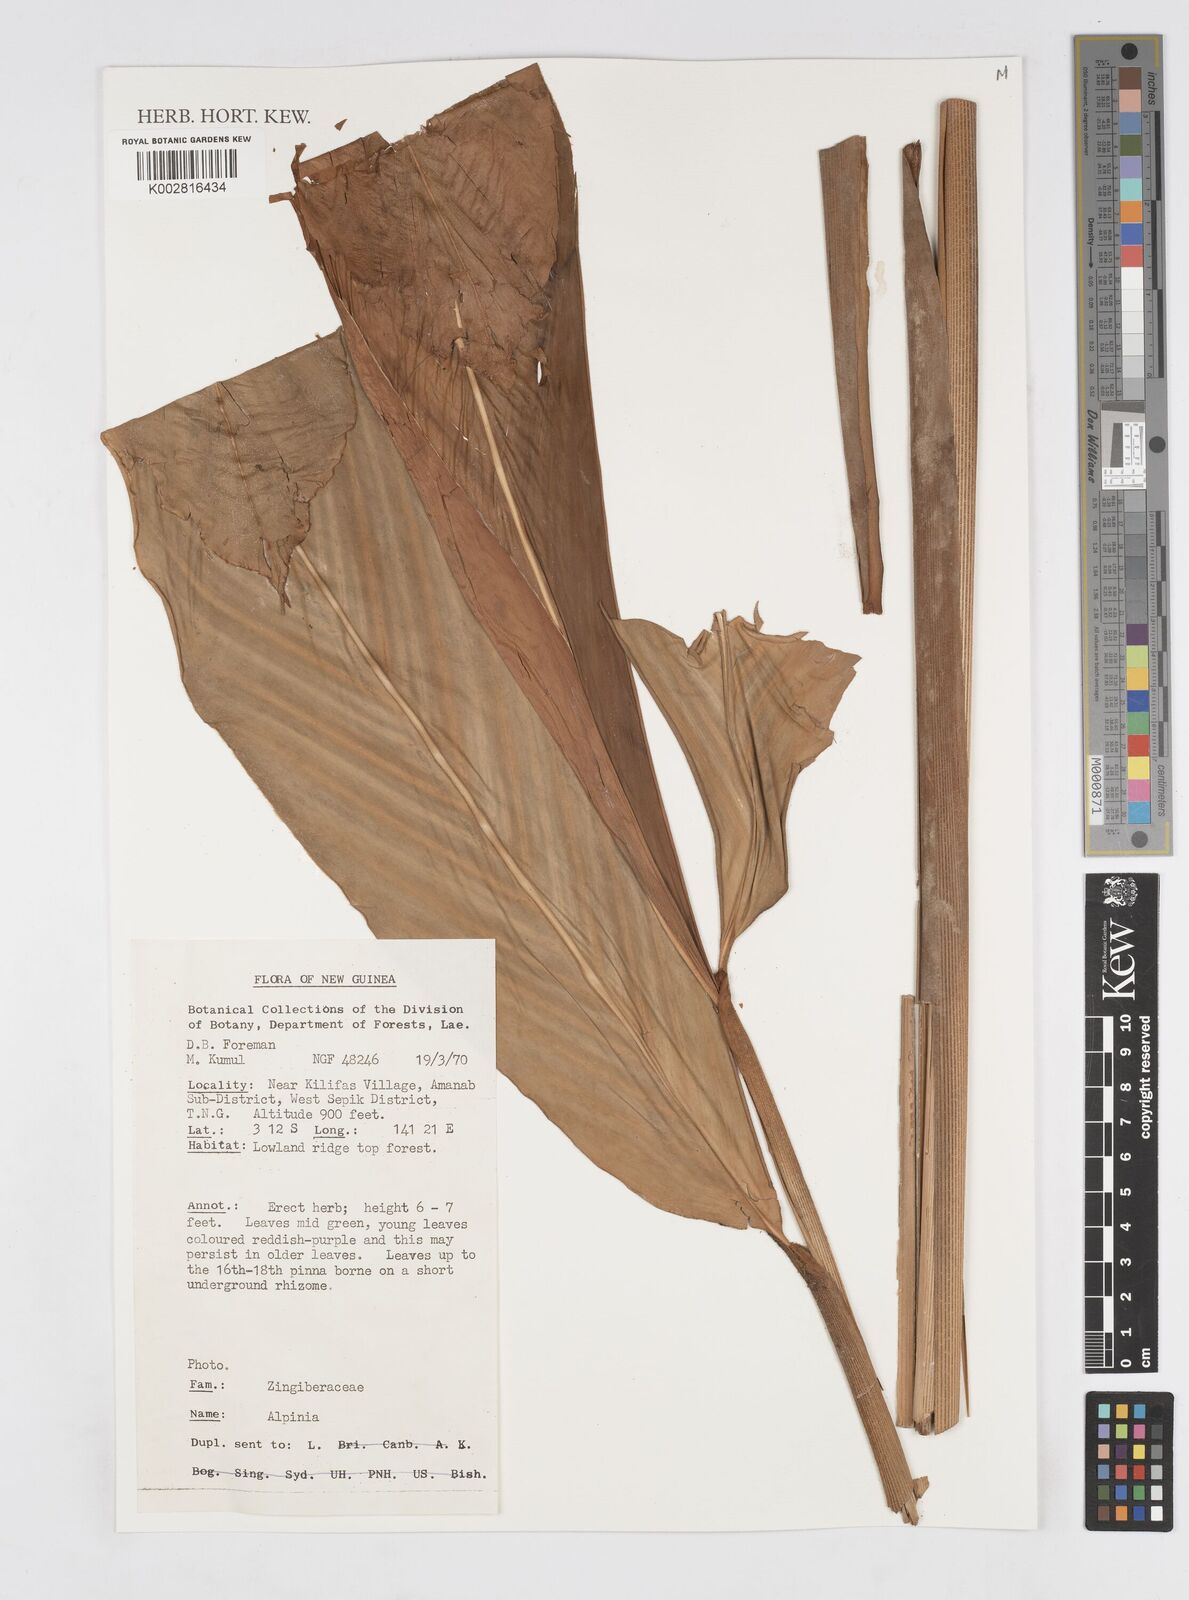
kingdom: Plantae
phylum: Tracheophyta
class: Liliopsida
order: Zingiberales
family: Zingiberaceae
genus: Alpinia
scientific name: Alpinia
